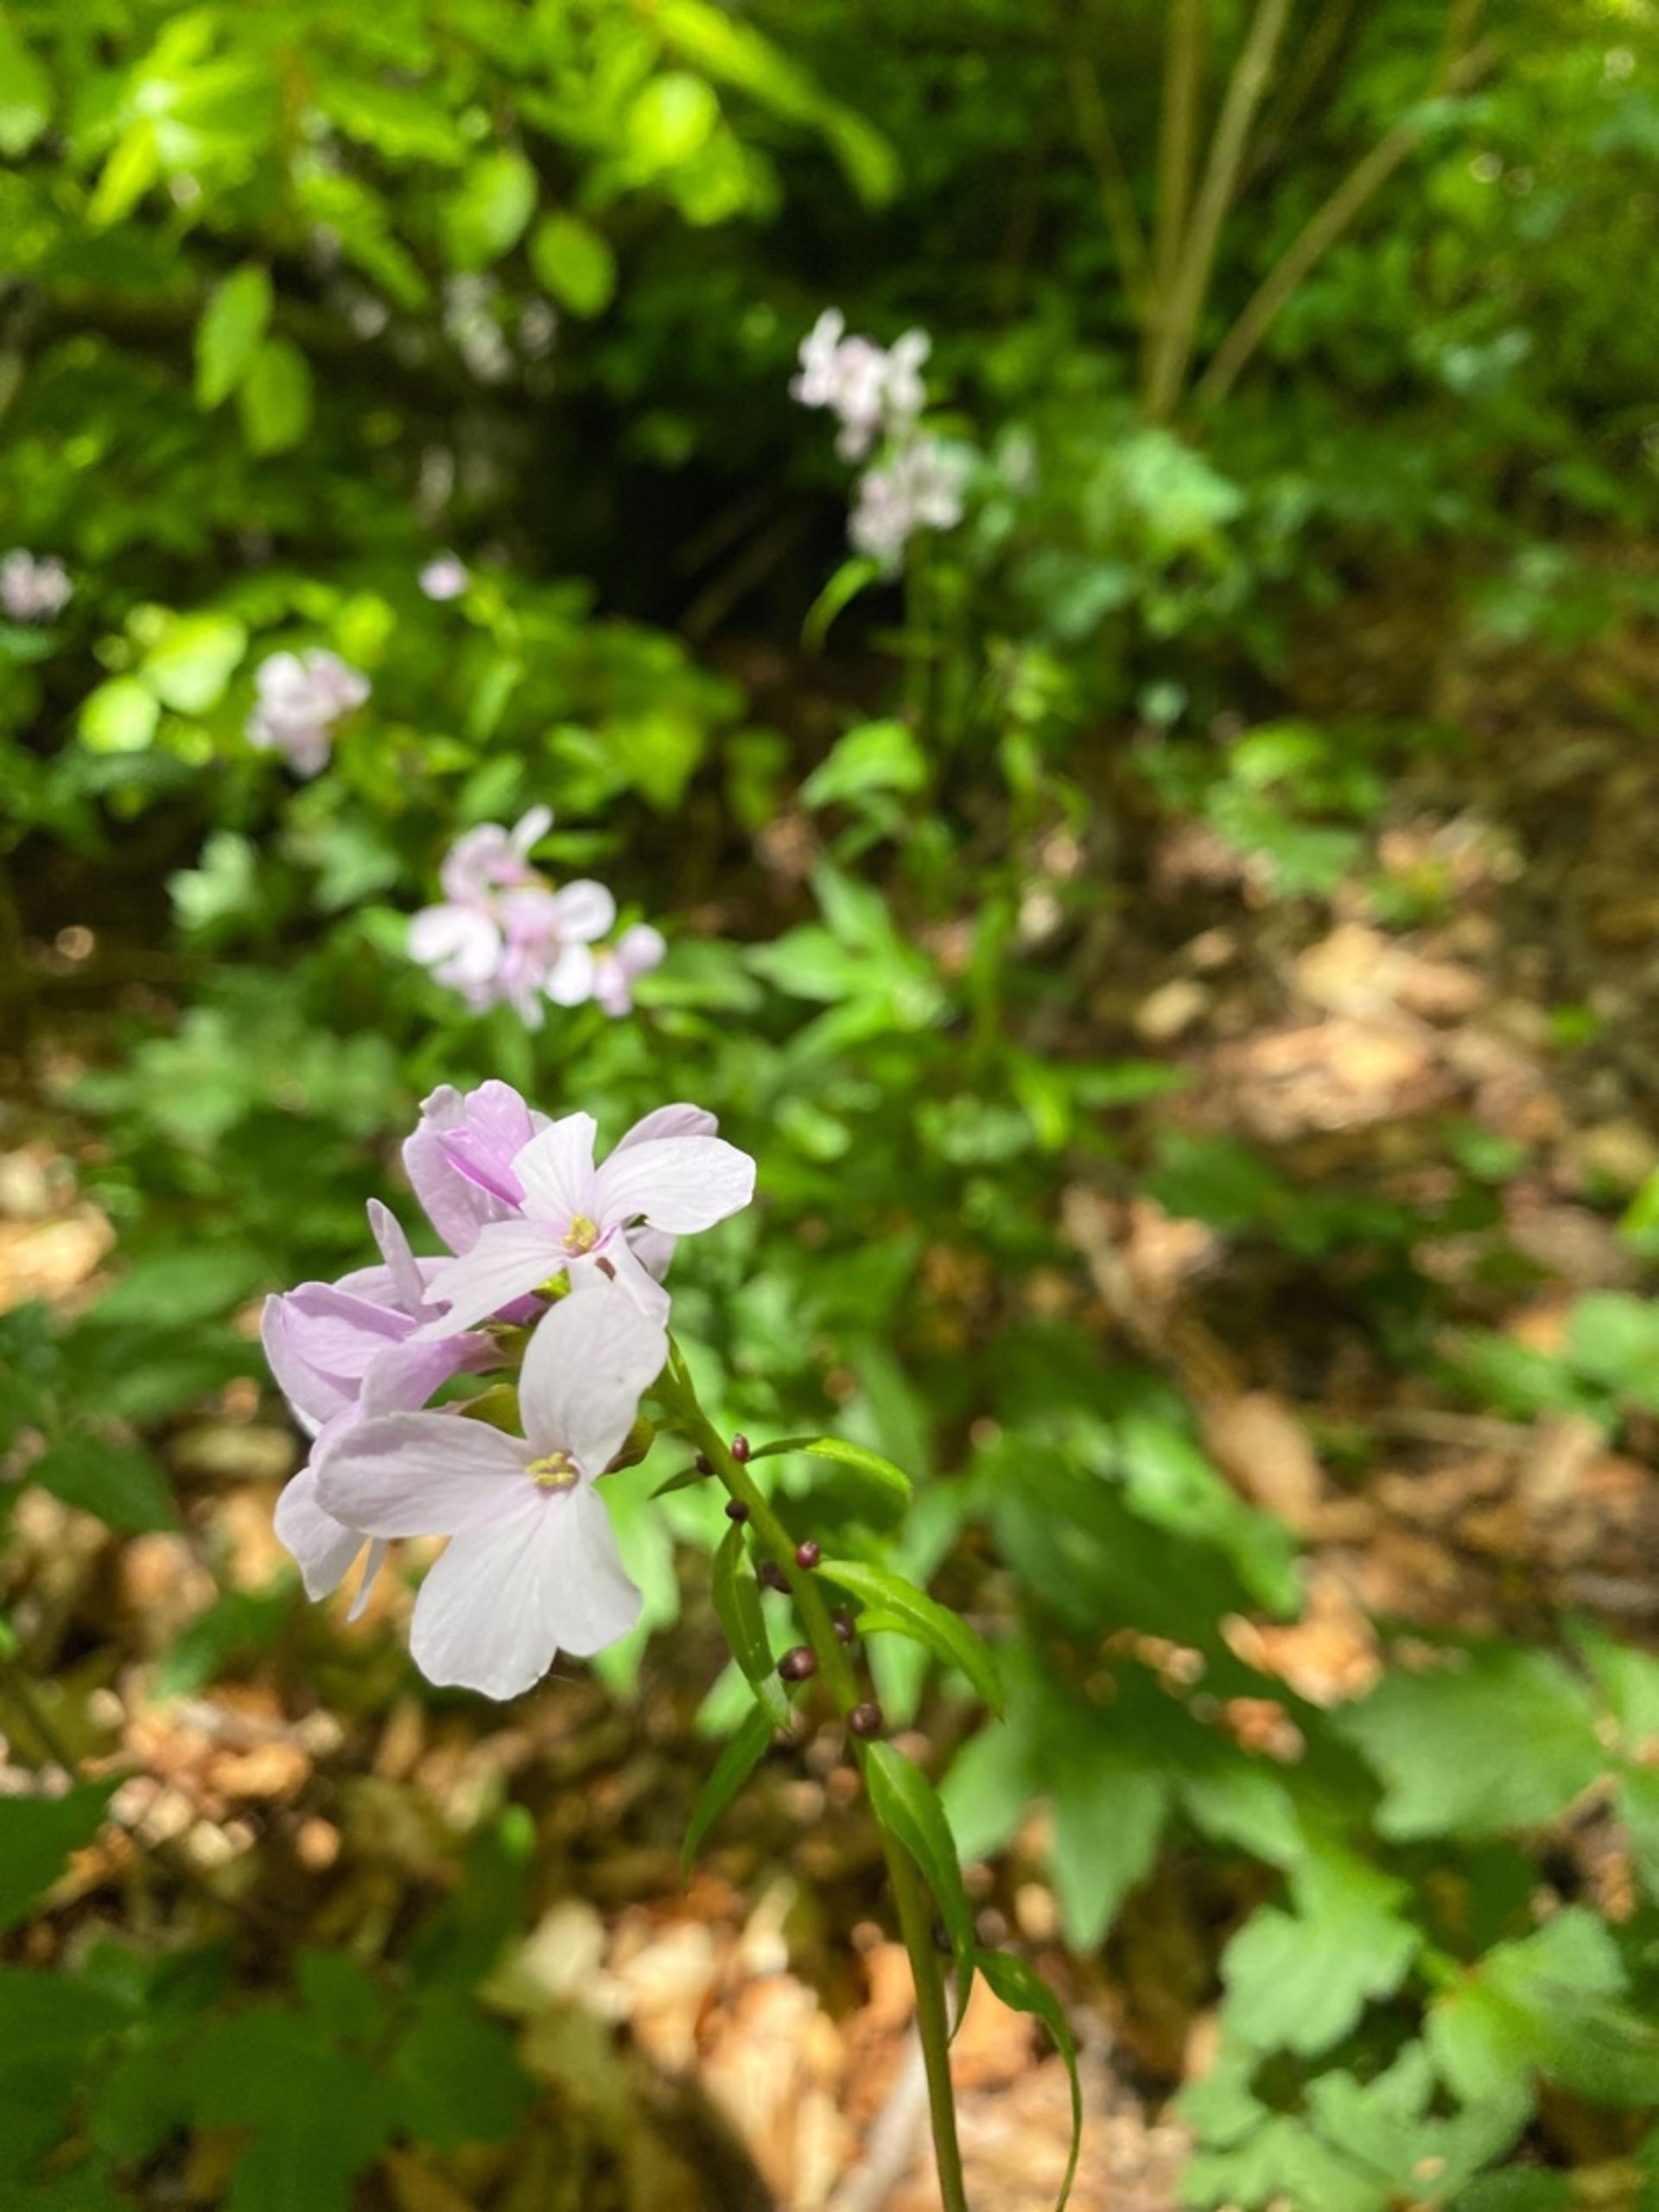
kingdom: Plantae
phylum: Tracheophyta
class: Magnoliopsida
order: Brassicales
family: Brassicaceae
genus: Cardamine
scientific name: Cardamine bulbifera
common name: Tandrod
